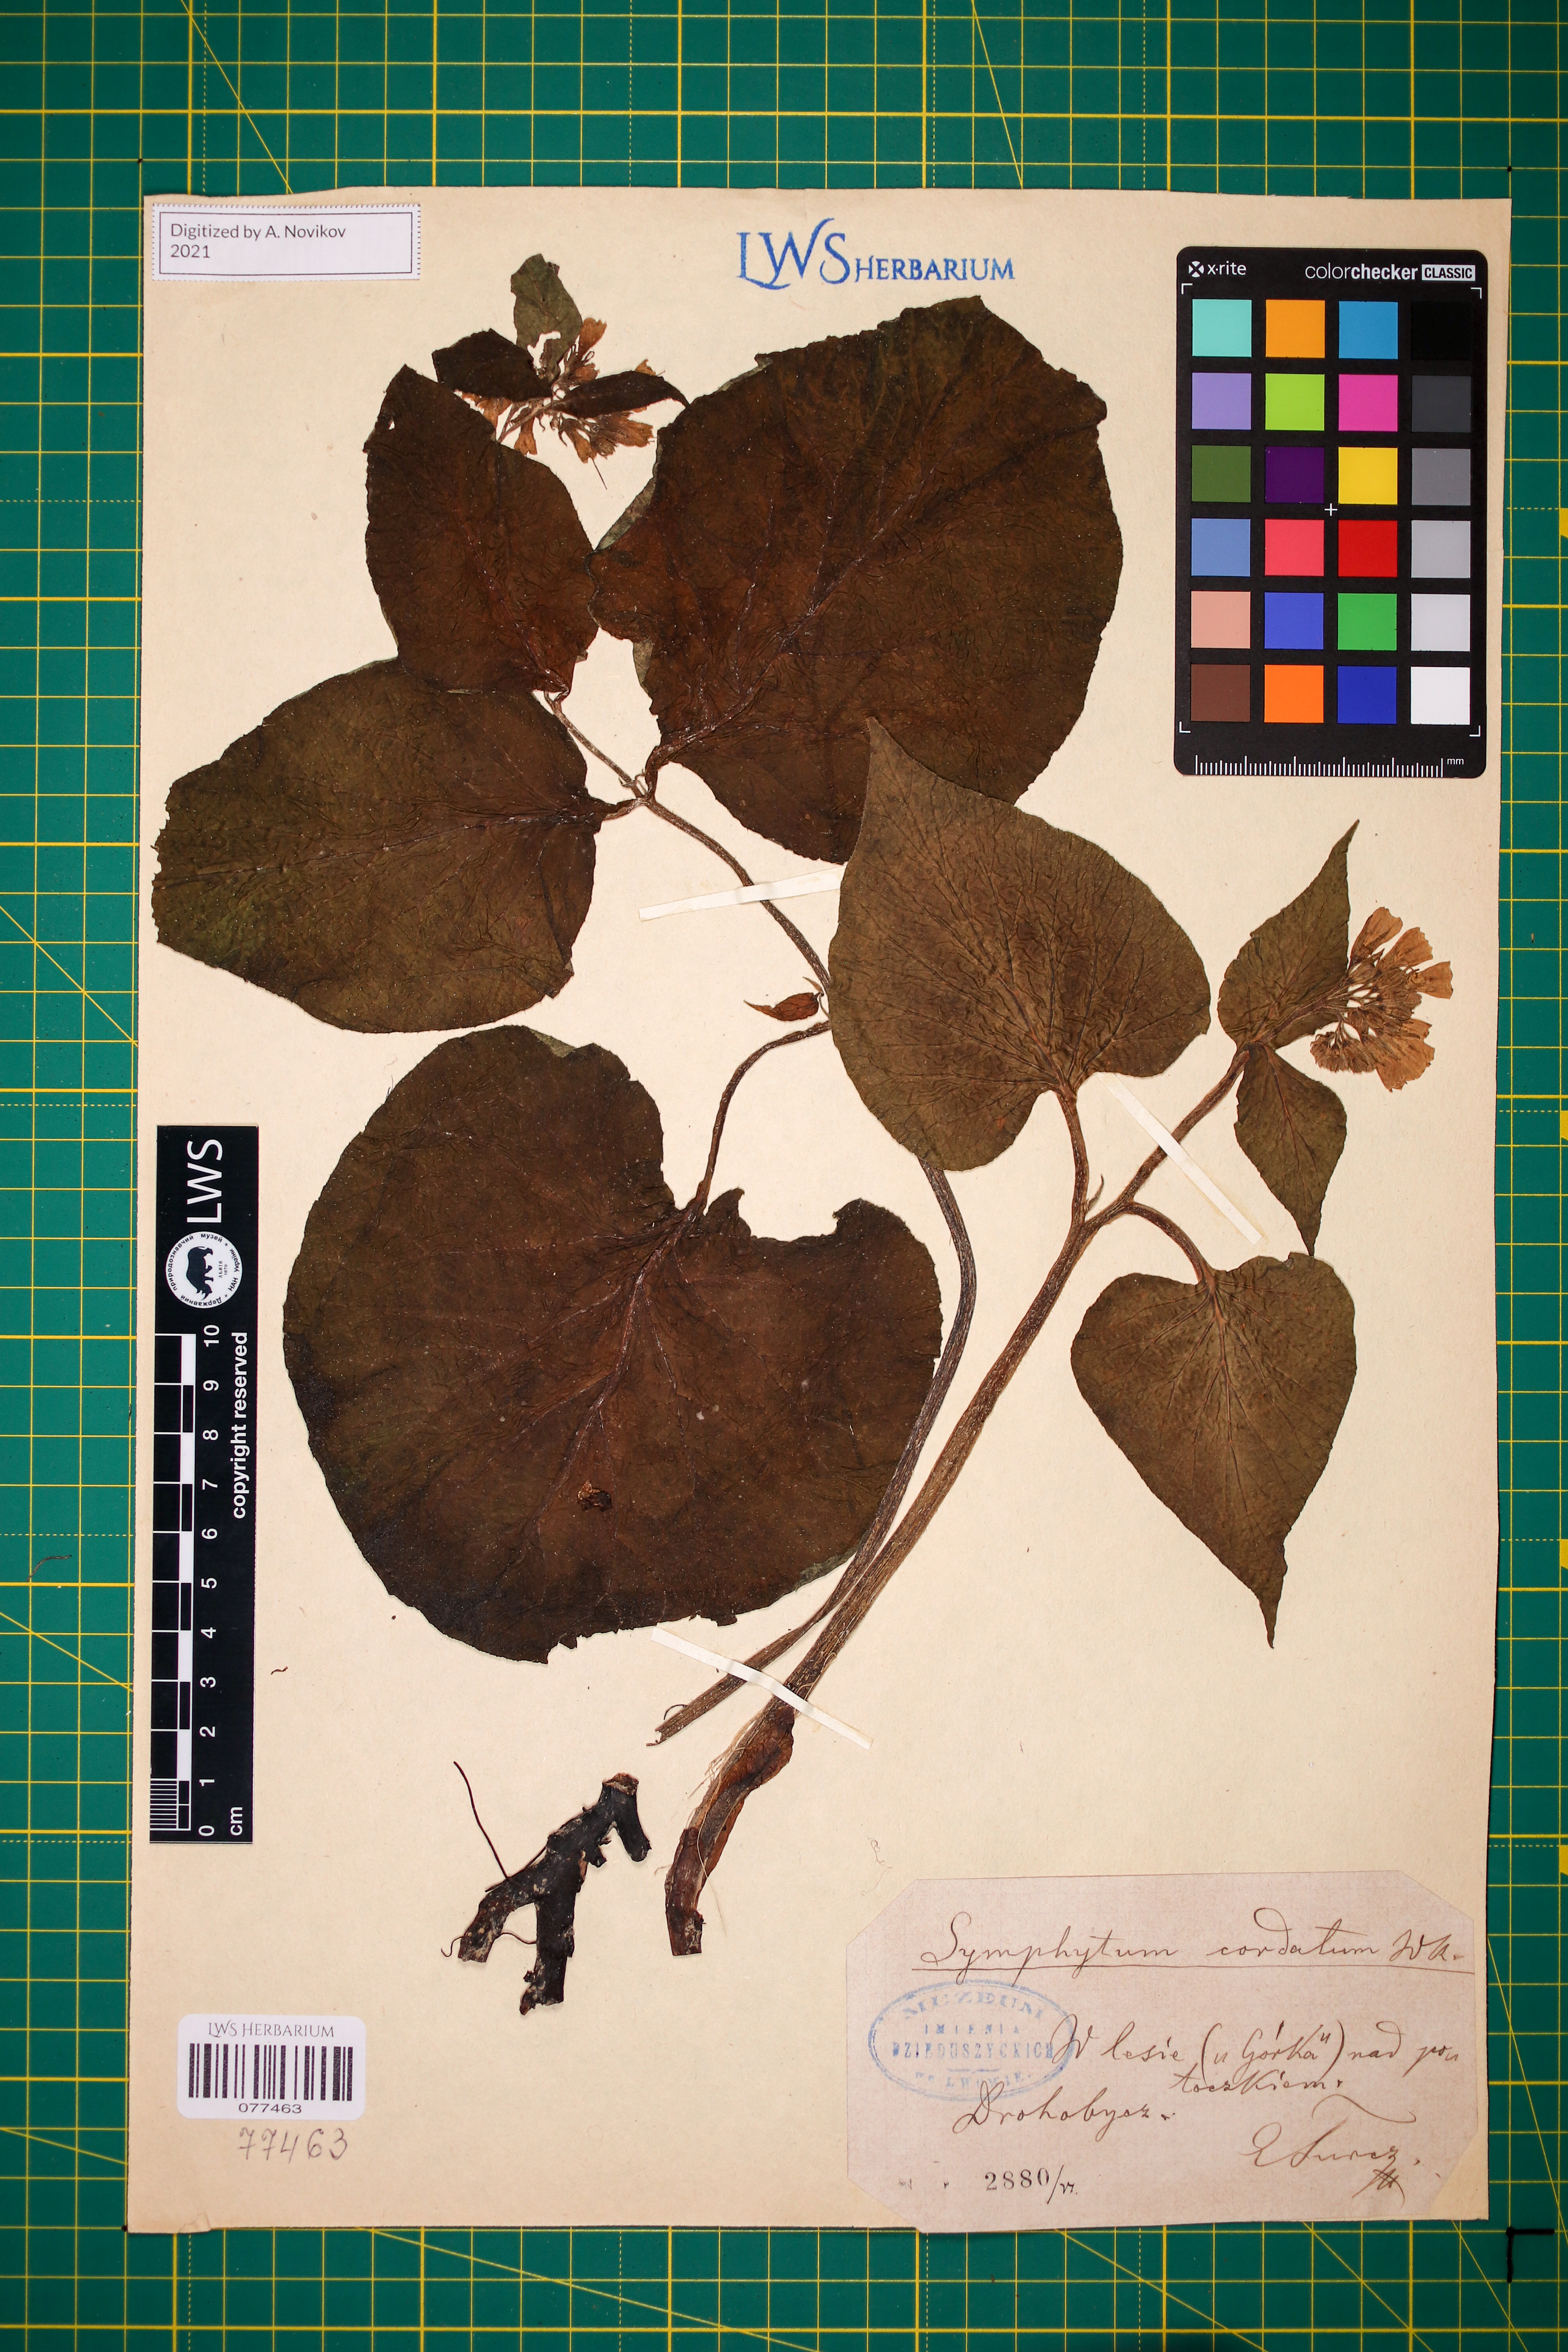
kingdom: Plantae
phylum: Tracheophyta
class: Magnoliopsida
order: Boraginales
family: Boraginaceae
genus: Symphytum
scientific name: Symphytum cordatum
